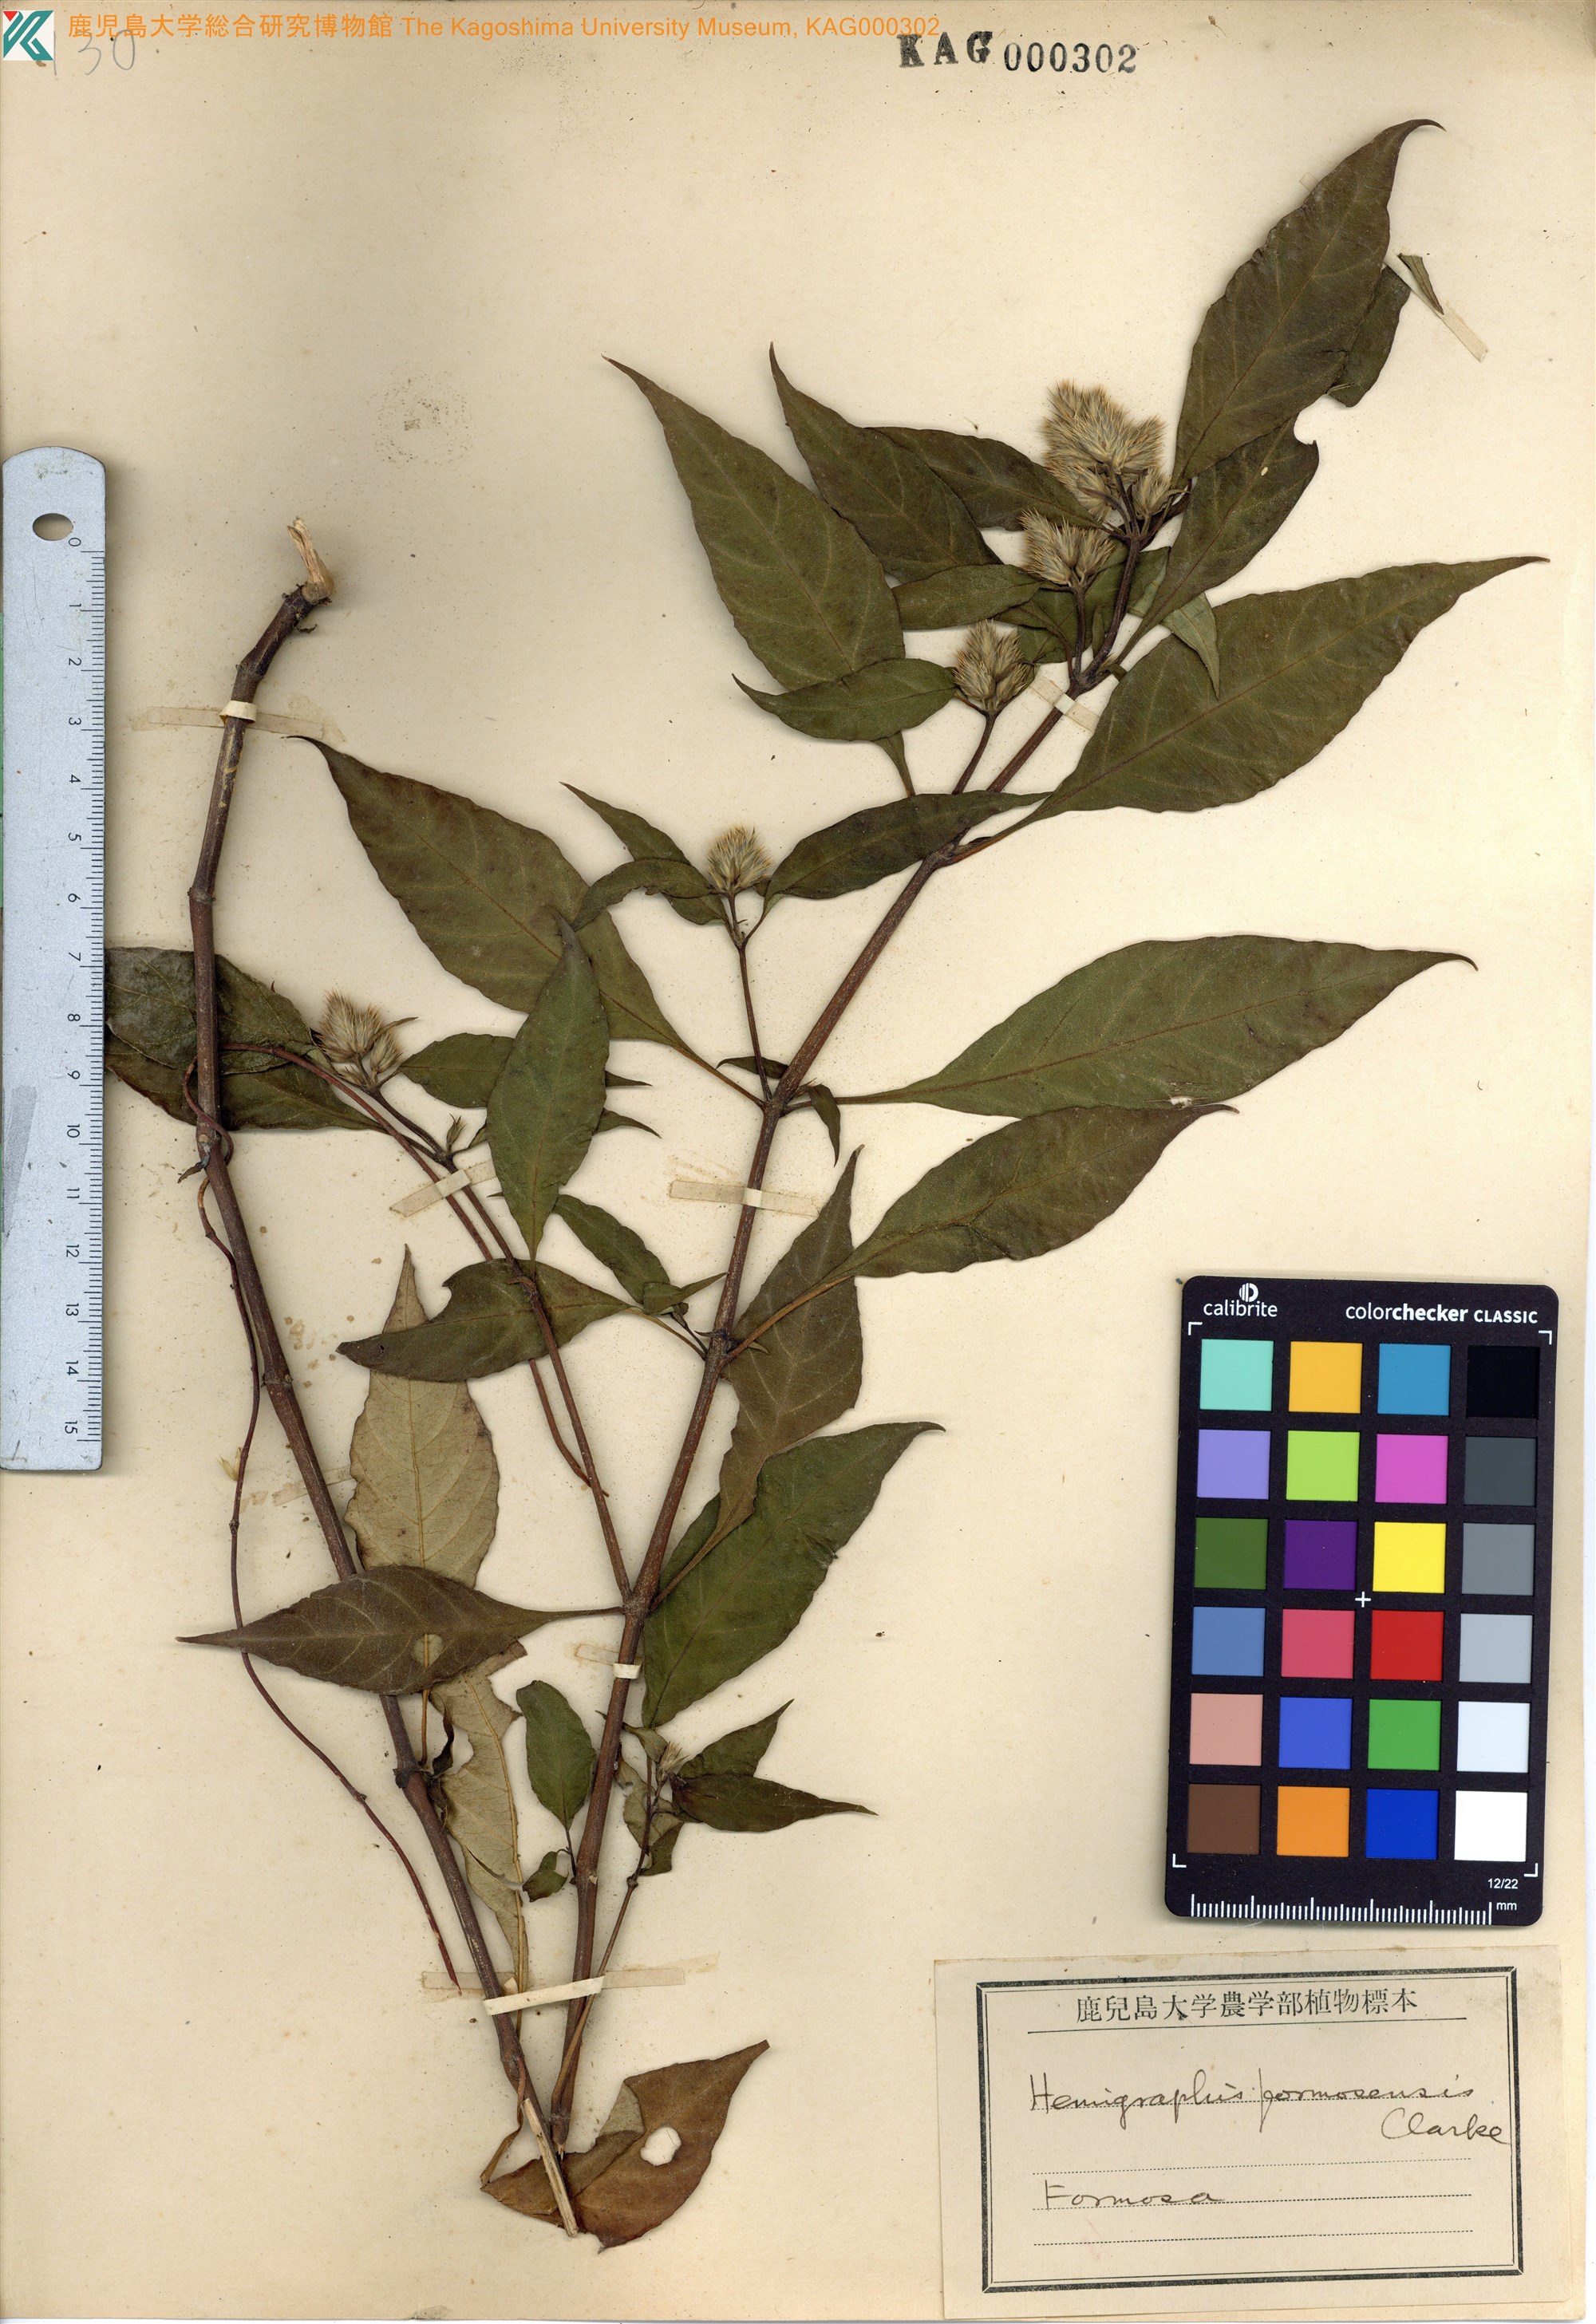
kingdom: Plantae
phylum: Tracheophyta
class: Magnoliopsida
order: Lamiales
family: Acanthaceae
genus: Lepidagathis
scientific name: Lepidagathis formosensis
